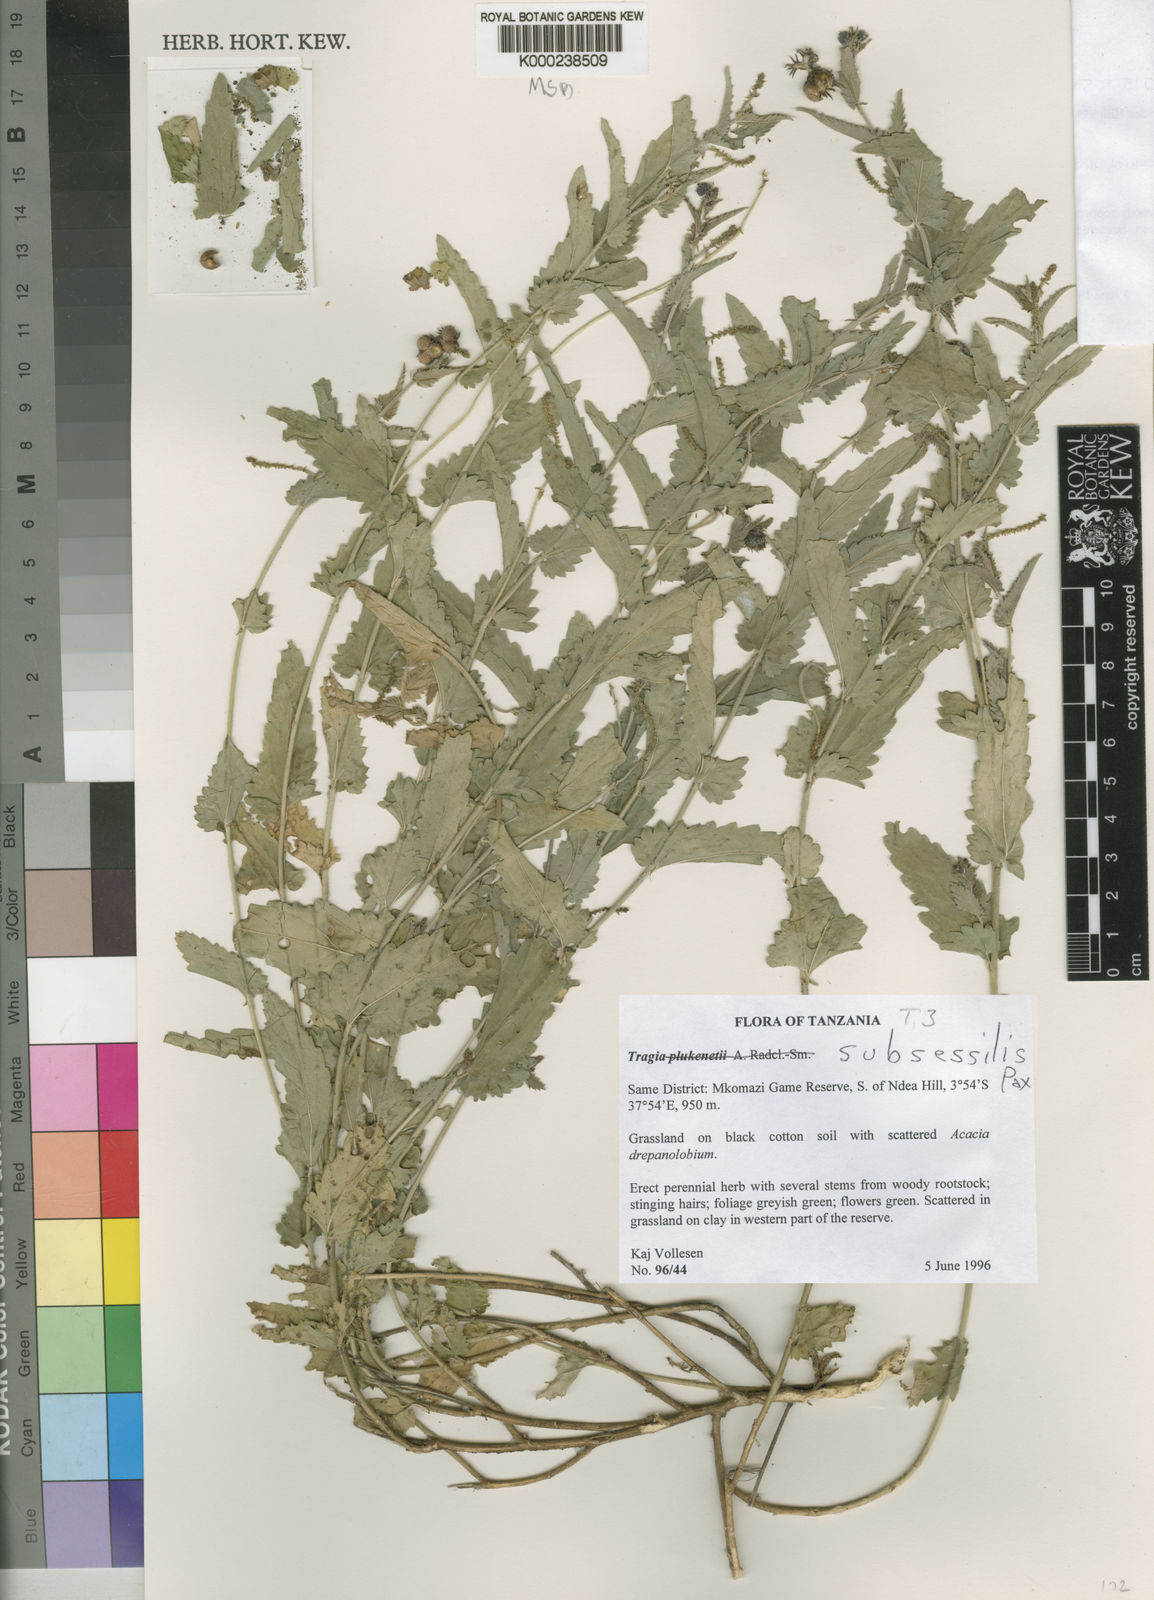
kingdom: Plantae
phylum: Tracheophyta
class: Magnoliopsida
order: Malpighiales
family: Euphorbiaceae
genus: Tragia
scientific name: Tragia subsessilis
